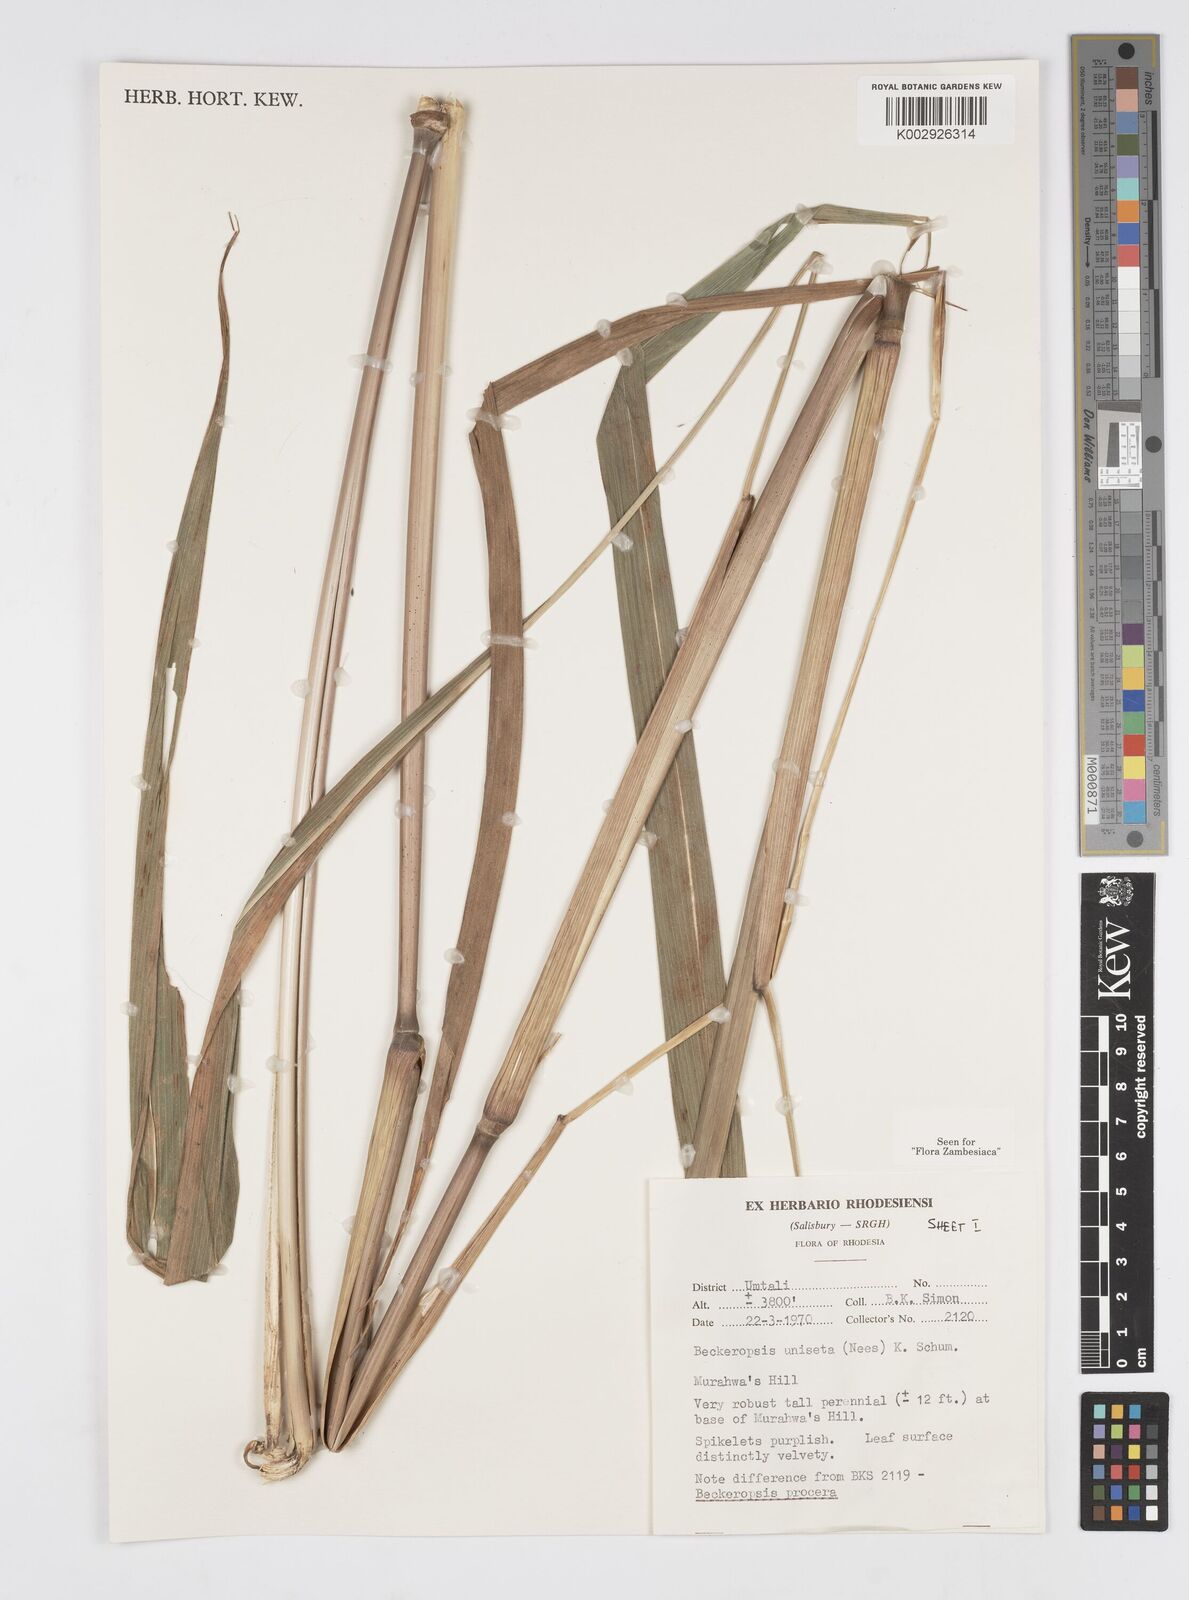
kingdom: Plantae
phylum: Tracheophyta
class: Liliopsida
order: Poales
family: Poaceae
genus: Cenchrus
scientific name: Cenchrus unisetus
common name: Natal grass
